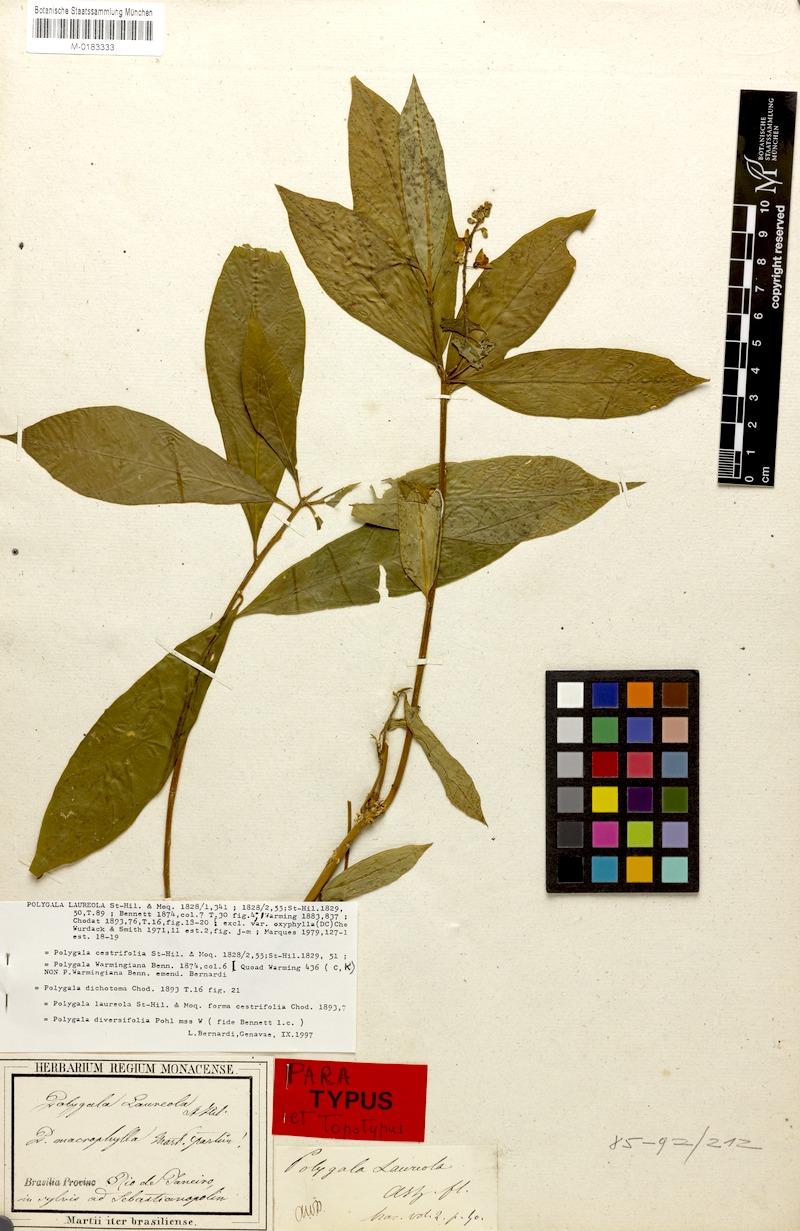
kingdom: Plantae
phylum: Tracheophyta
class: Magnoliopsida
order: Fabales
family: Polygalaceae
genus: Caamembeca
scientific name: Caamembeca salicifolia
